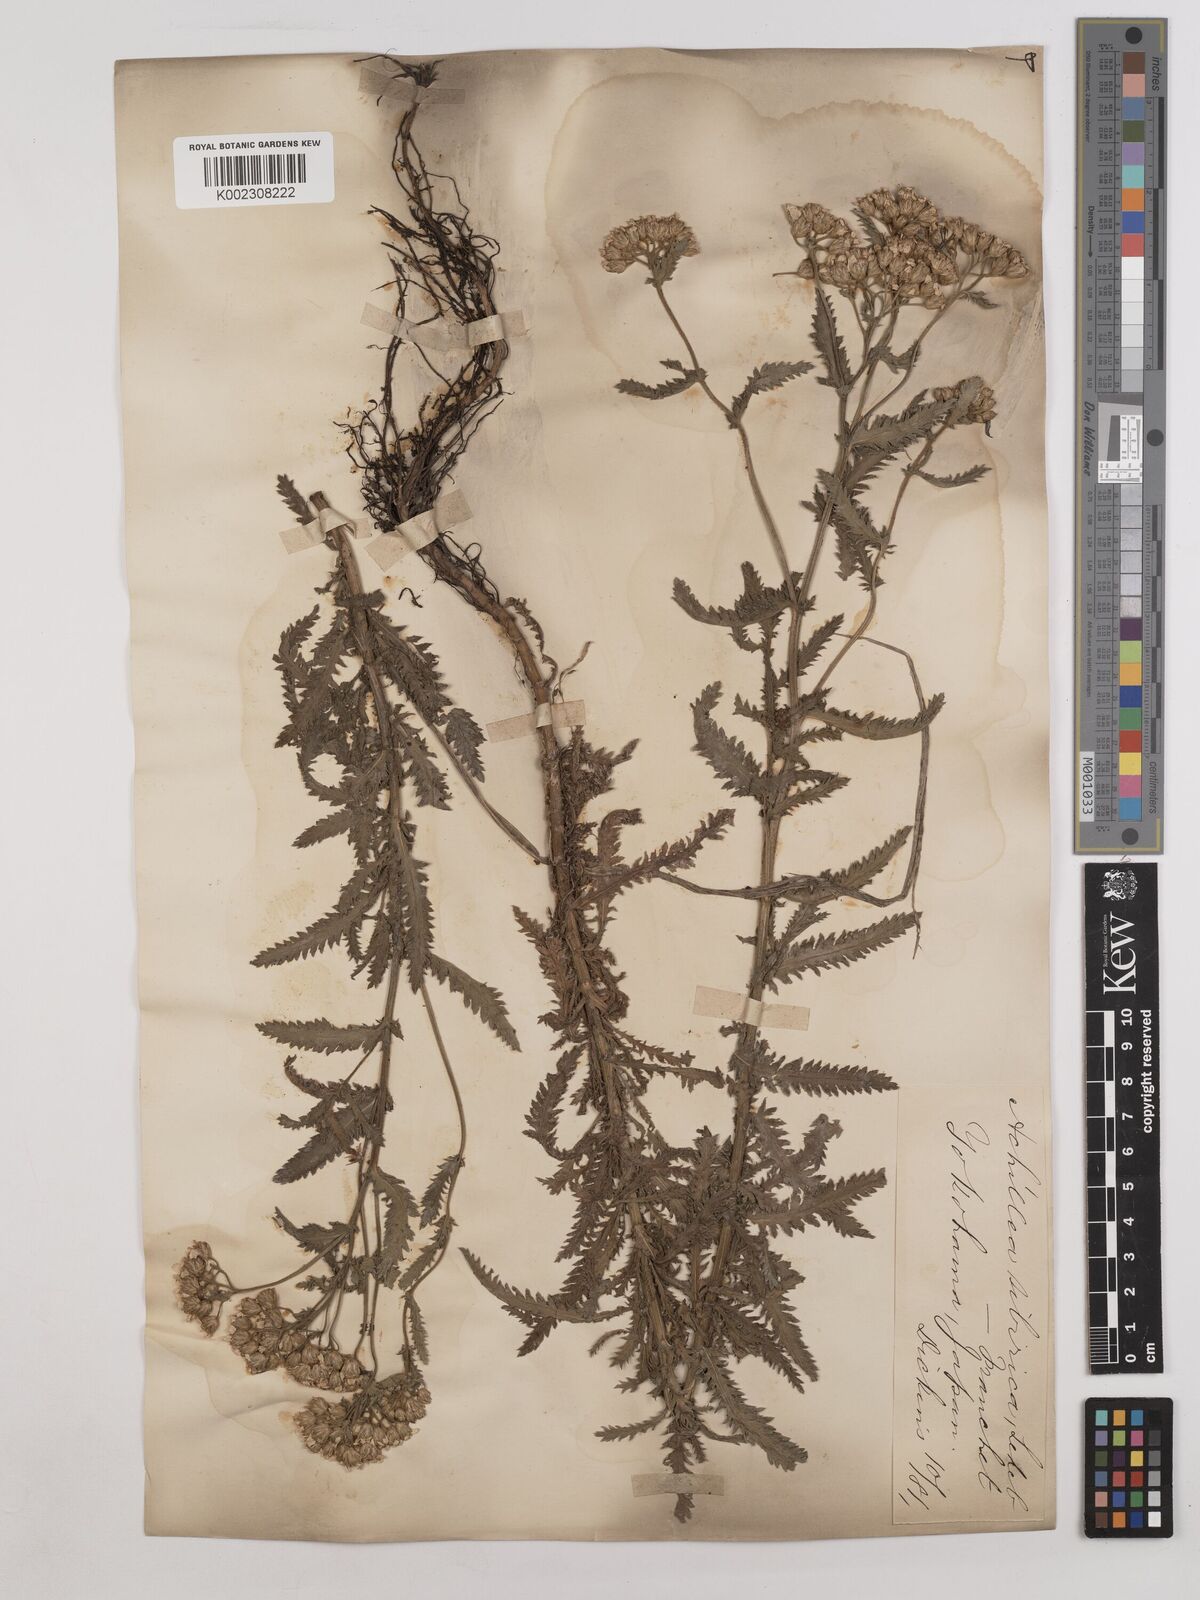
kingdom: Plantae
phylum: Tracheophyta
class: Magnoliopsida
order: Asterales
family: Asteraceae
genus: Achillea
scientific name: Achillea alpina
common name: Siberian yarrow
